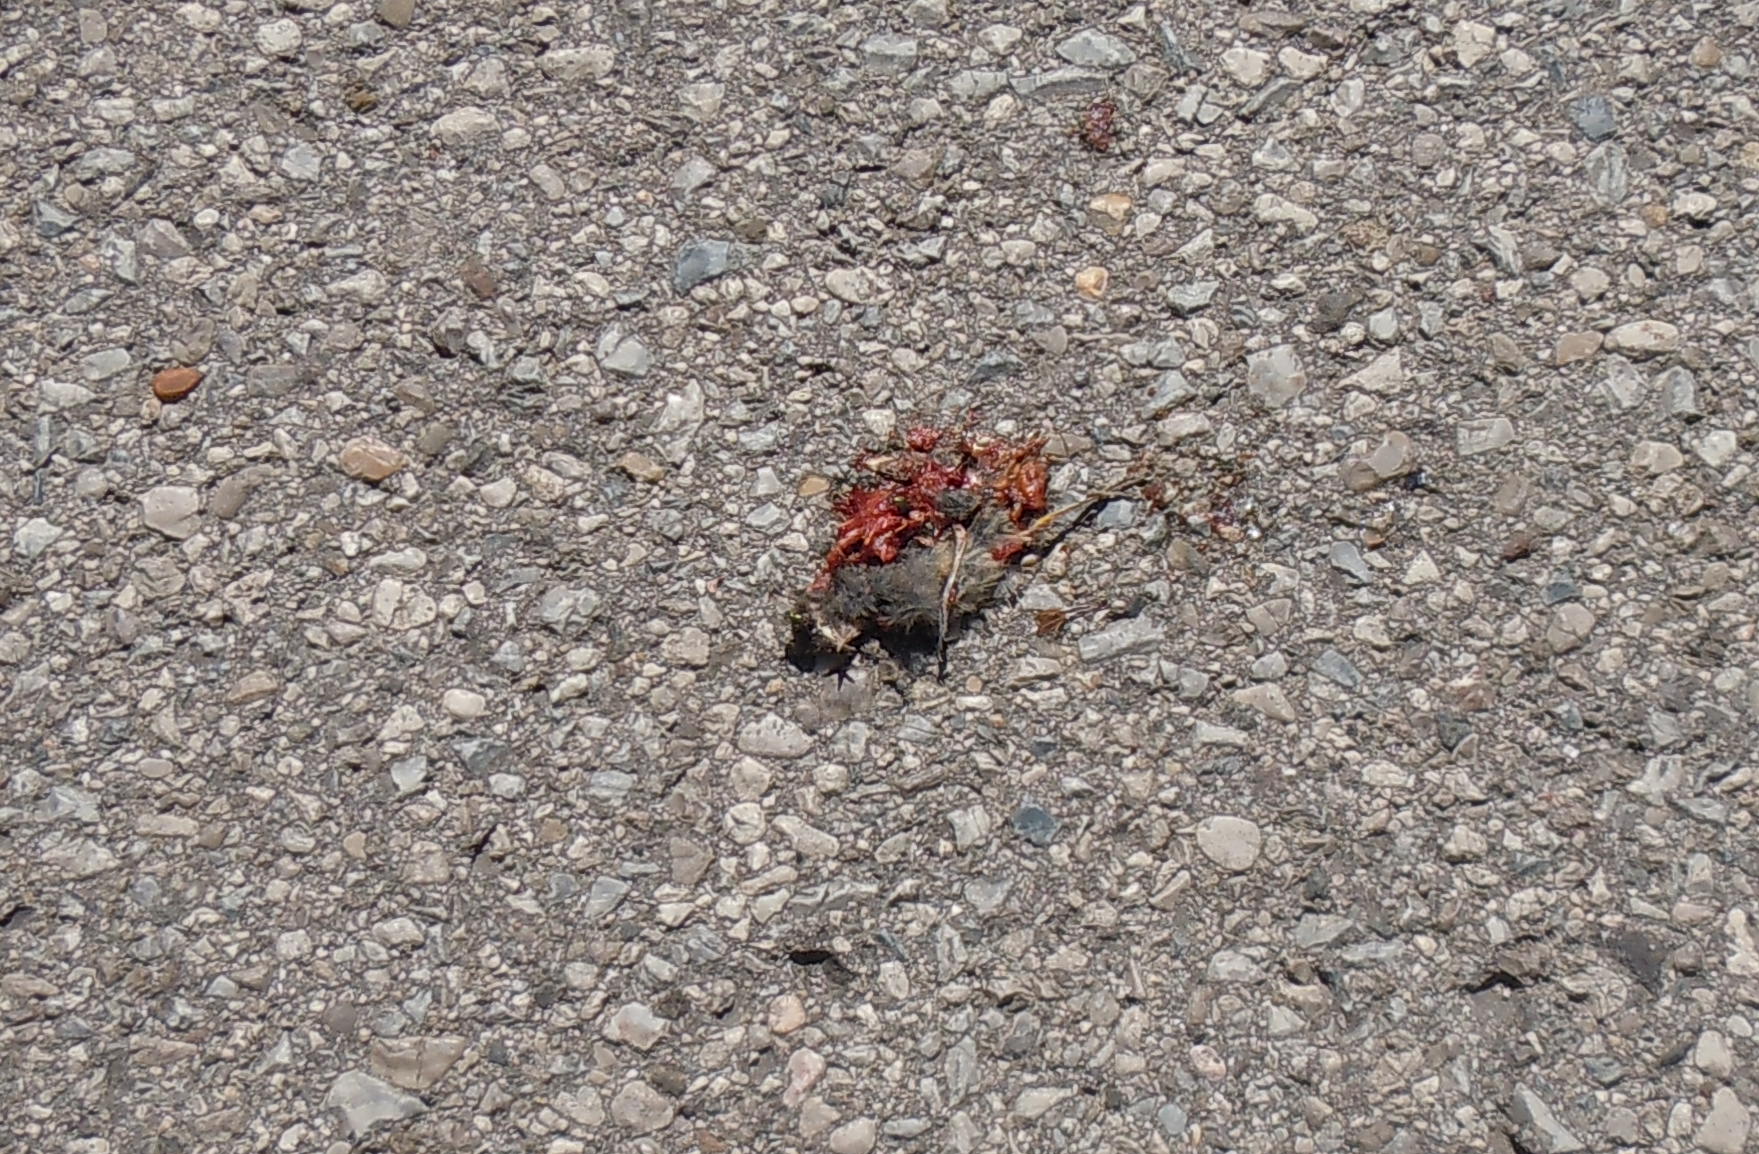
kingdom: Animalia
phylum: Chordata
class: Aves
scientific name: Aves
